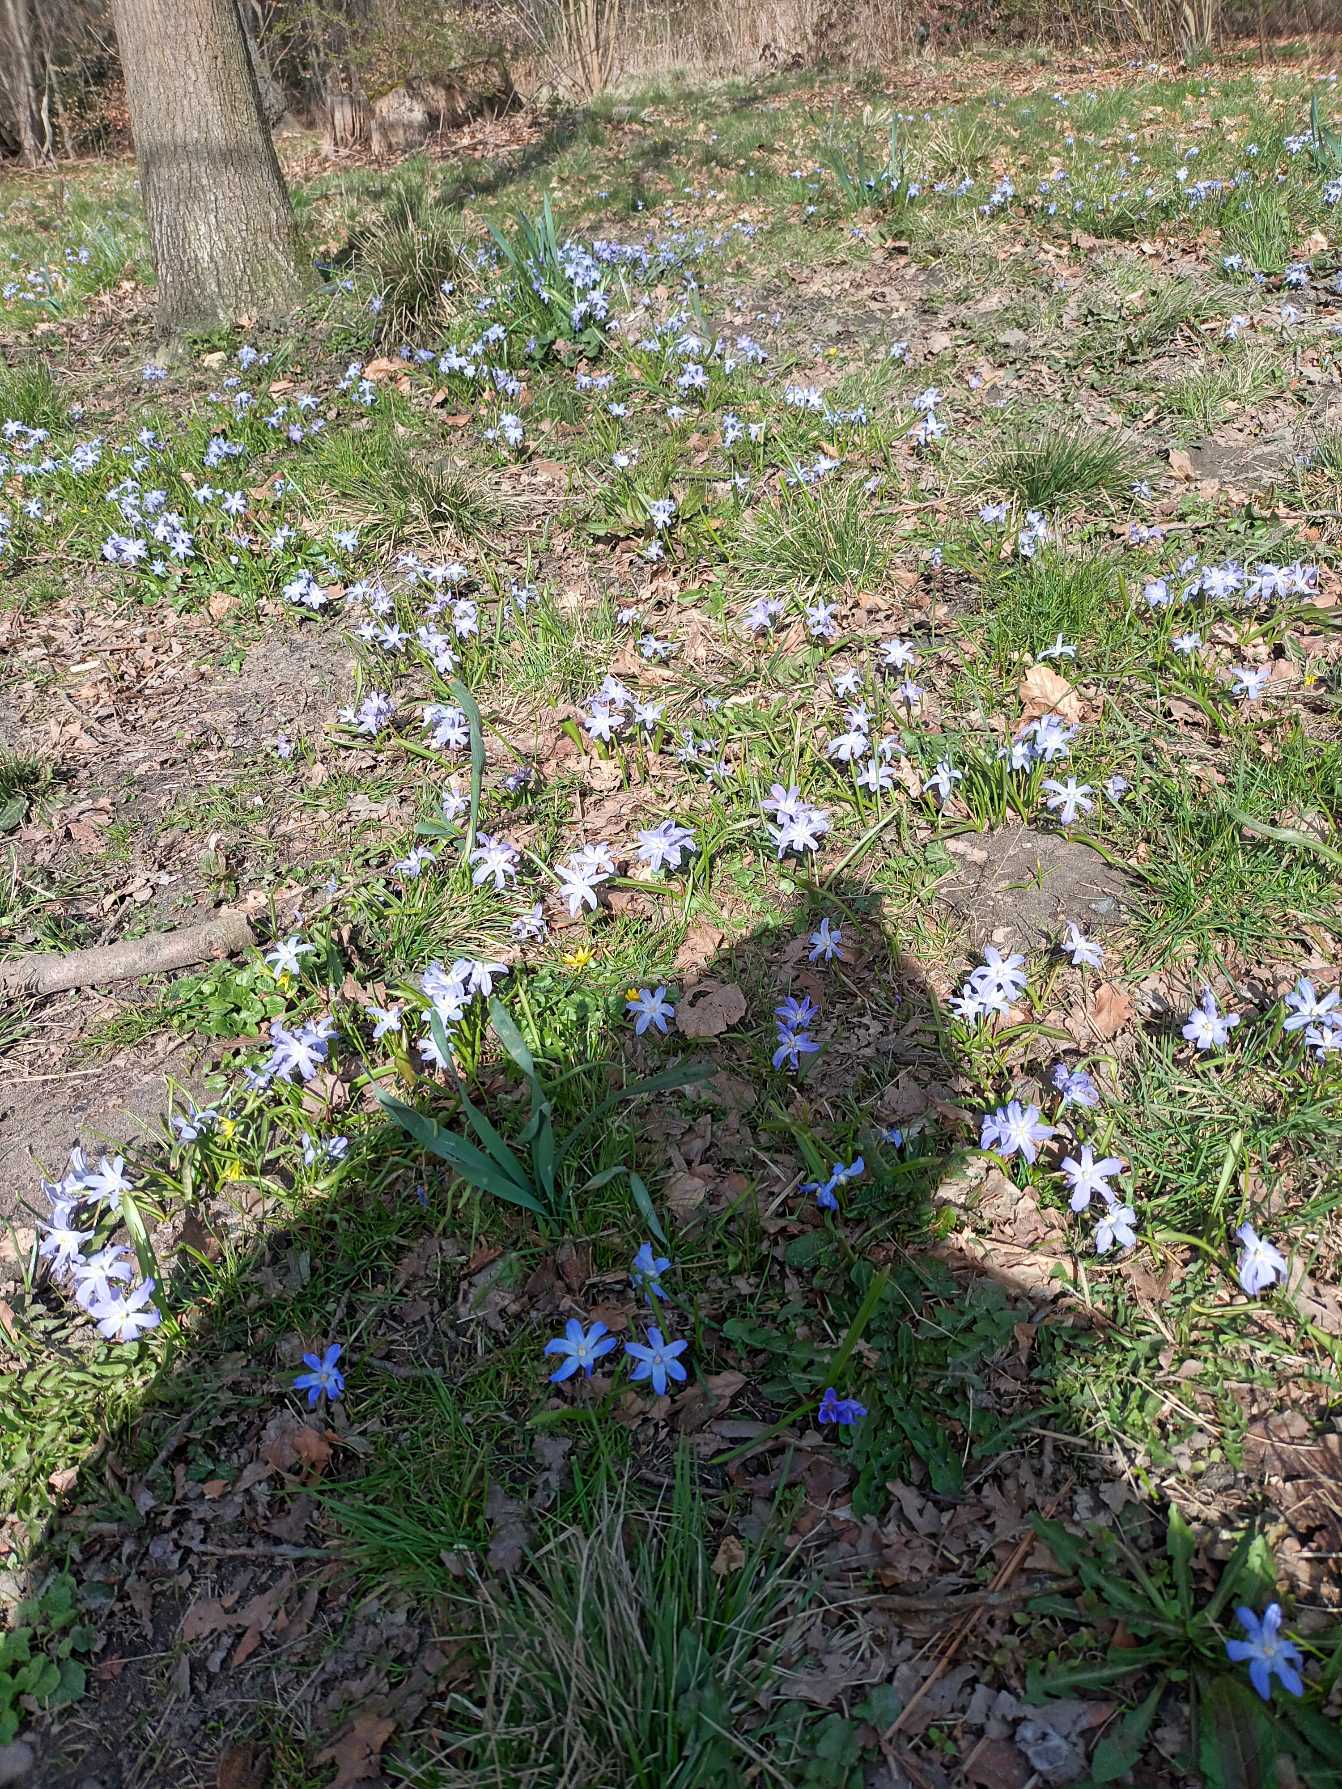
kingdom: Plantae
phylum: Tracheophyta
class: Liliopsida
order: Asparagales
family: Asparagaceae
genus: Scilla
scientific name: Scilla luciliae
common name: Stor snepryd
